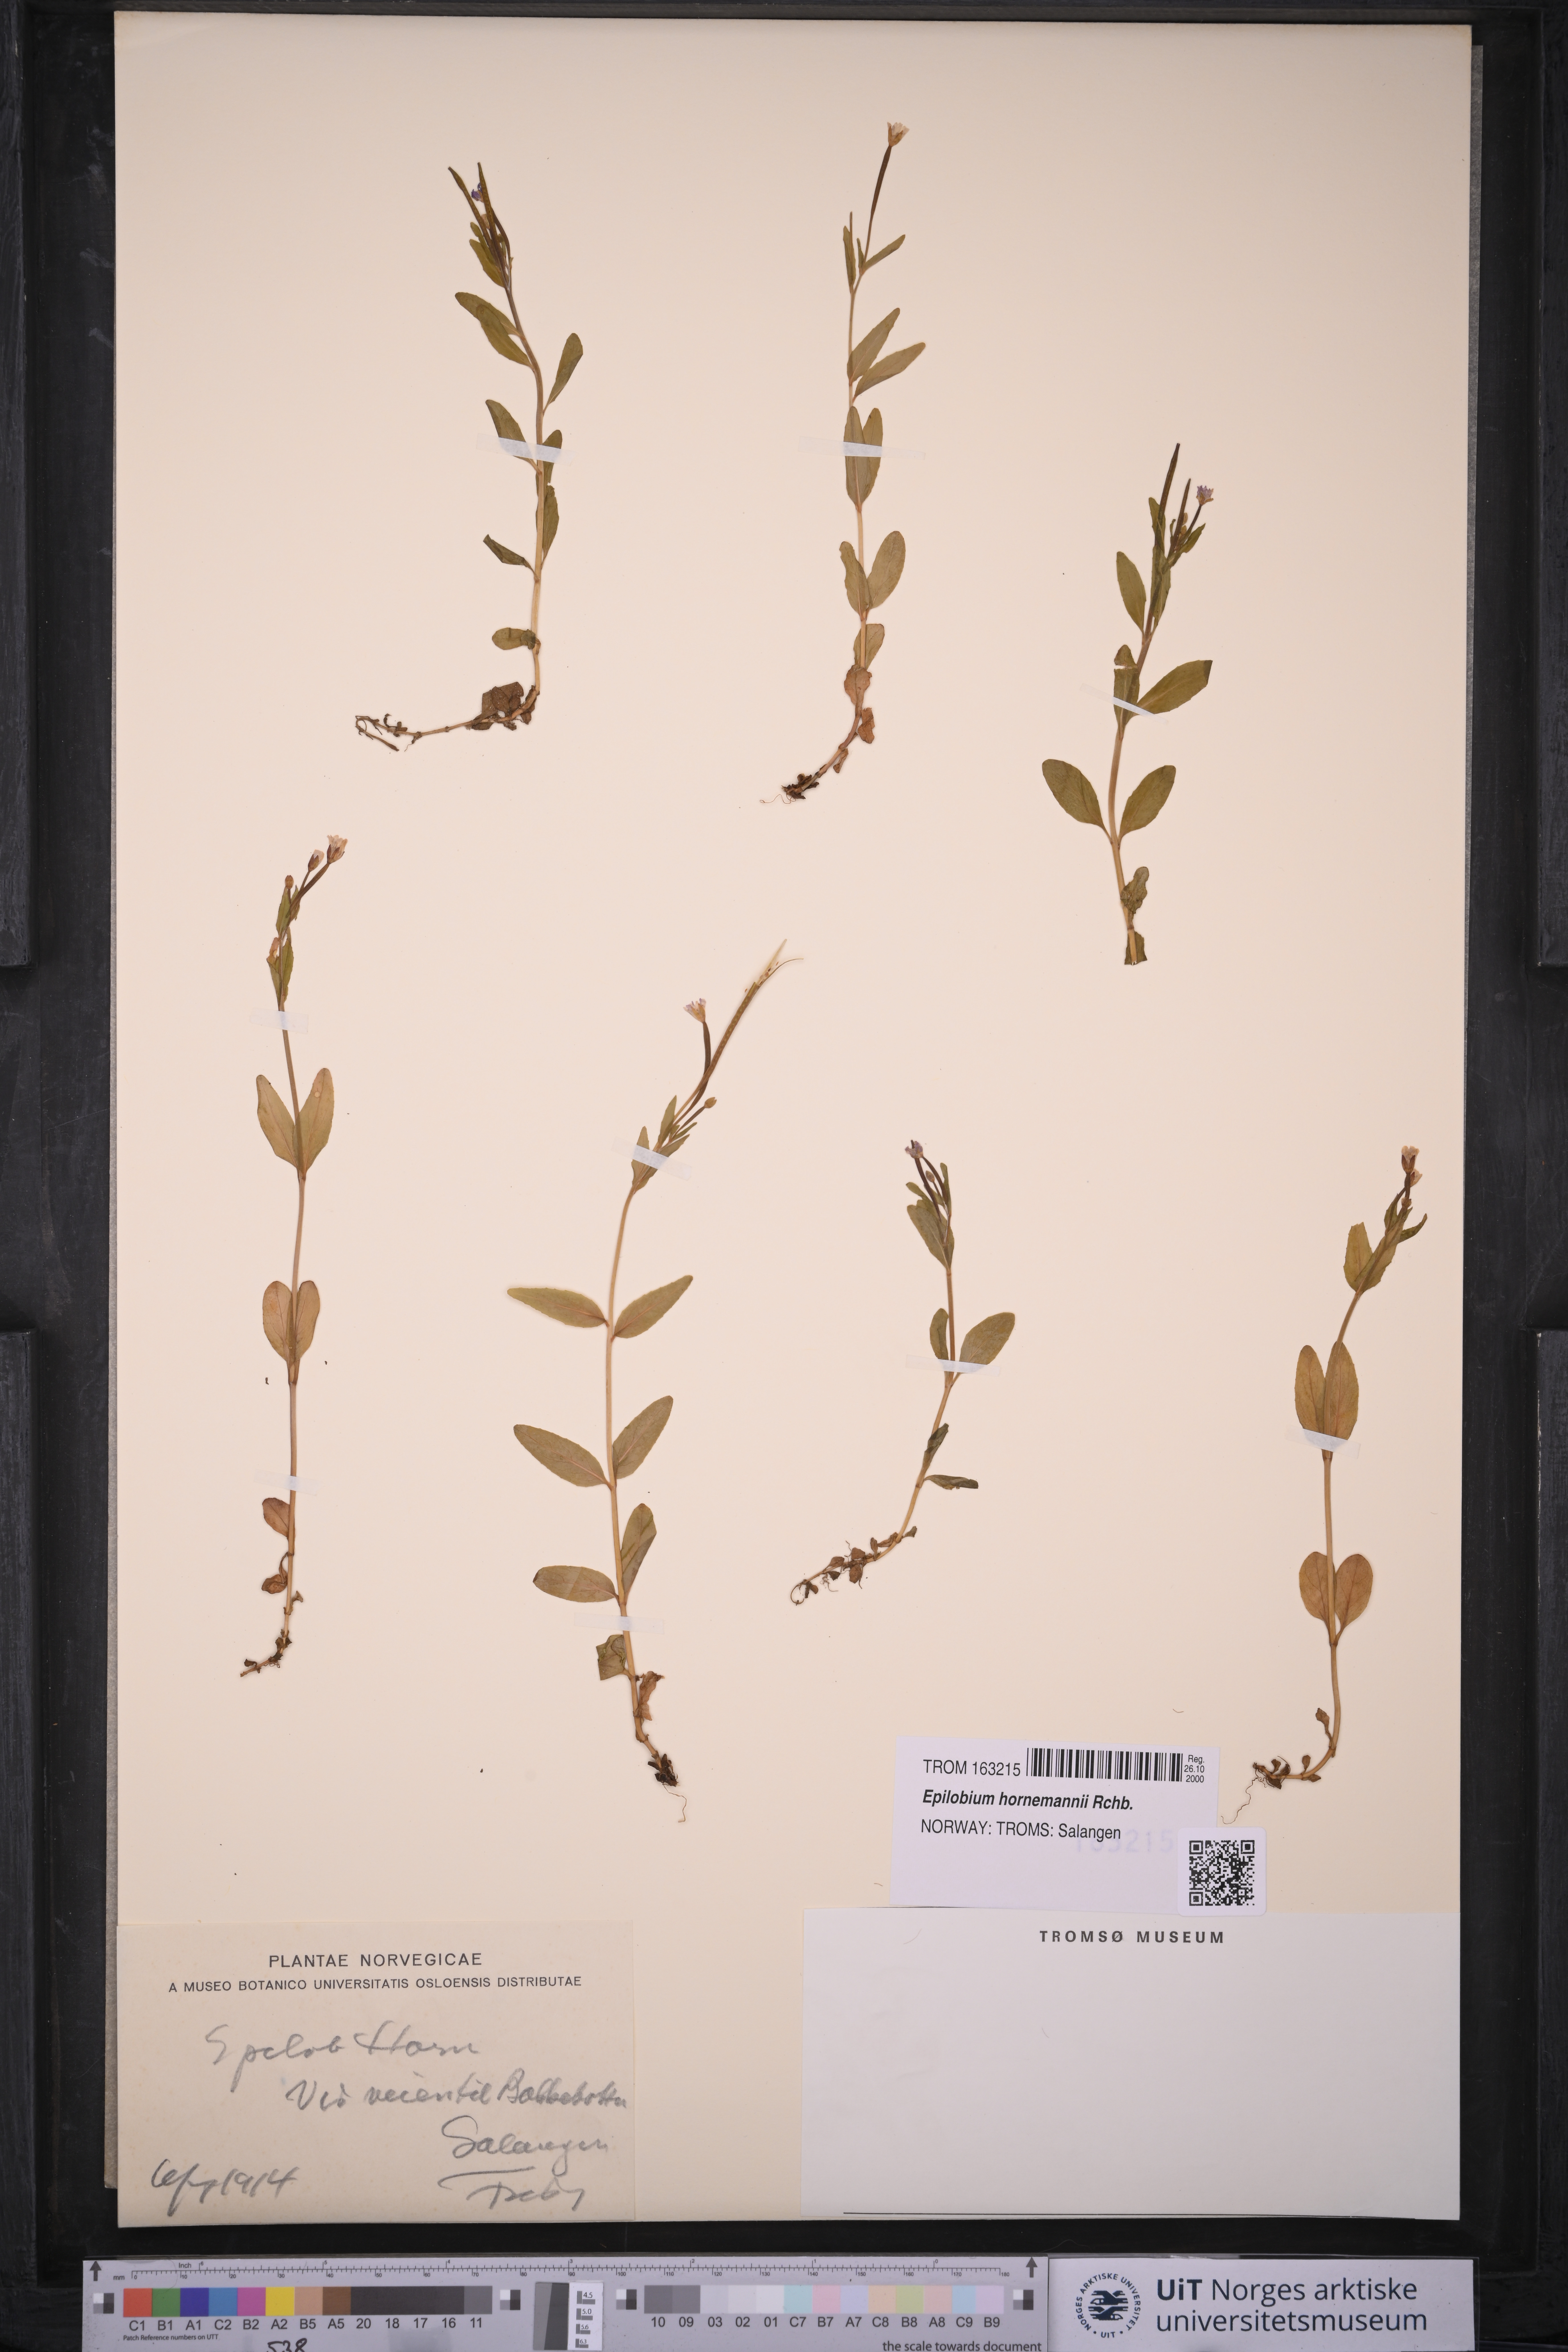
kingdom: Plantae
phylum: Tracheophyta
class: Magnoliopsida
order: Myrtales
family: Onagraceae
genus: Epilobium
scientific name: Epilobium hornemannii
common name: Hornemann's willowherb
